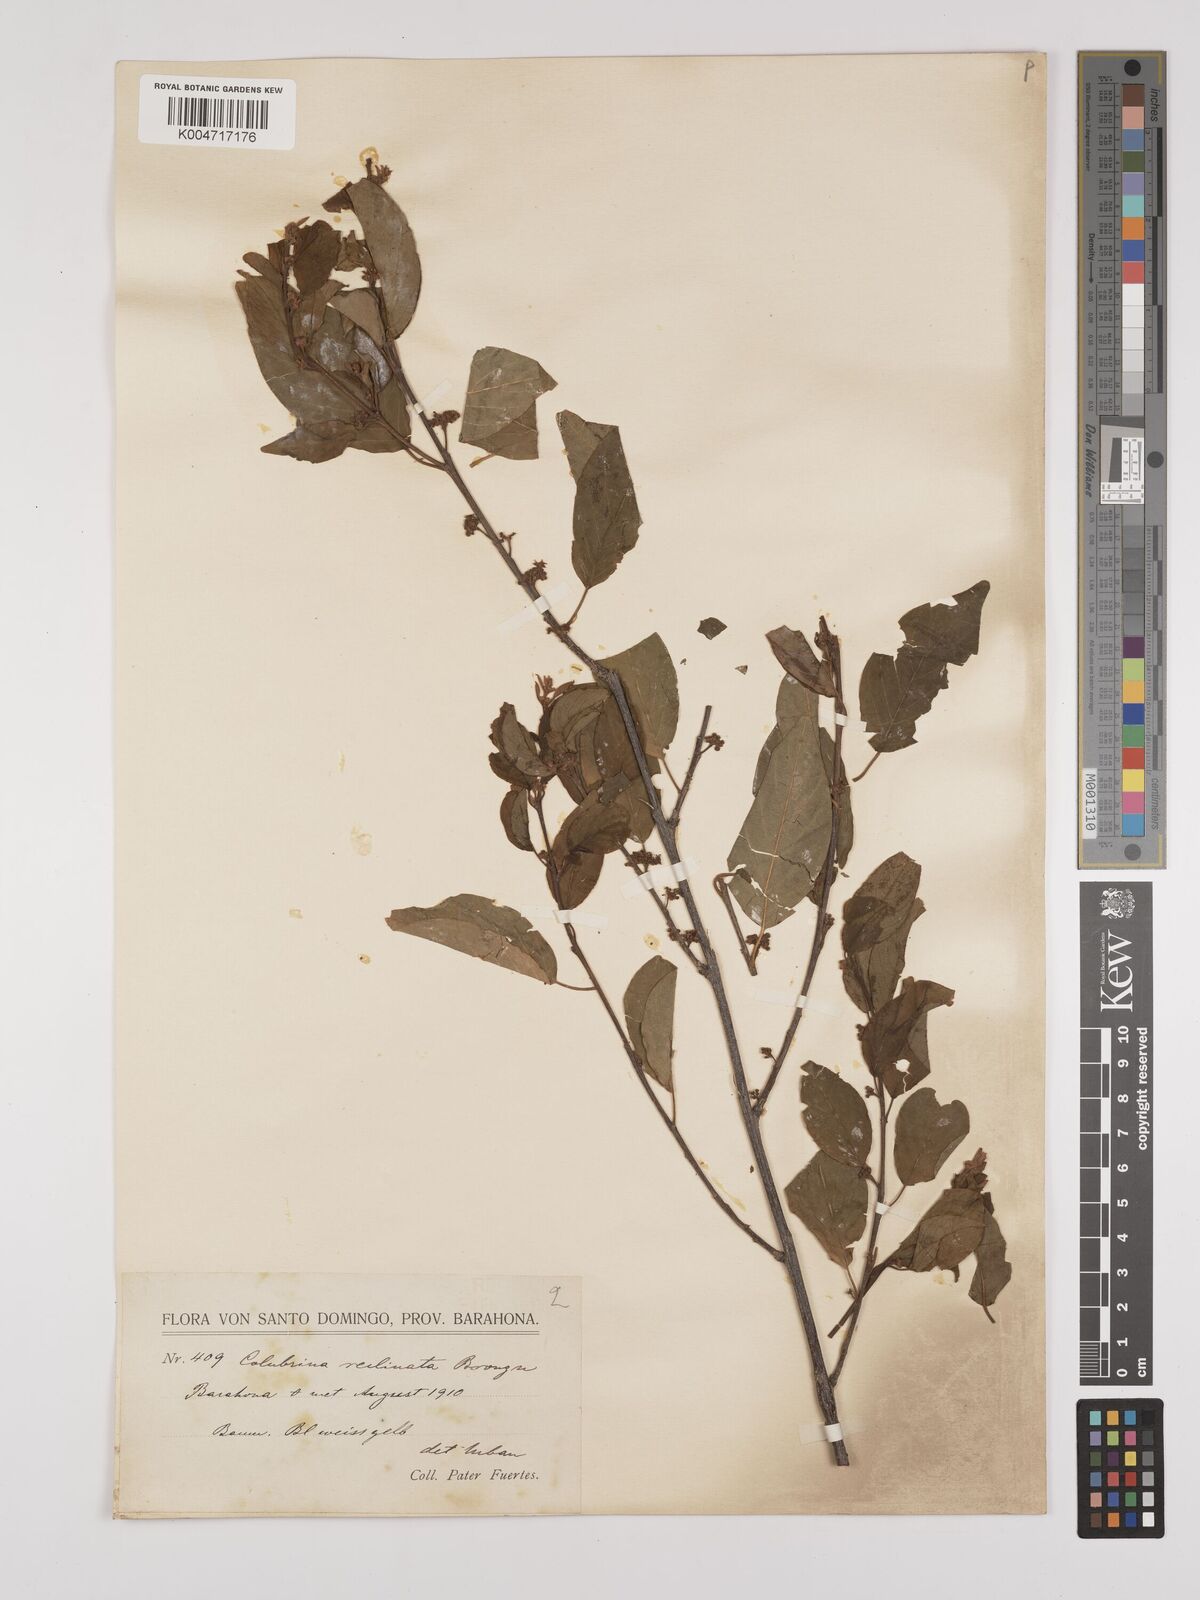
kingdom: Plantae
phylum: Tracheophyta
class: Magnoliopsida
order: Rosales
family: Rhamnaceae
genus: Colubrina
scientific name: Colubrina elliptica
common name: Soldierwood
